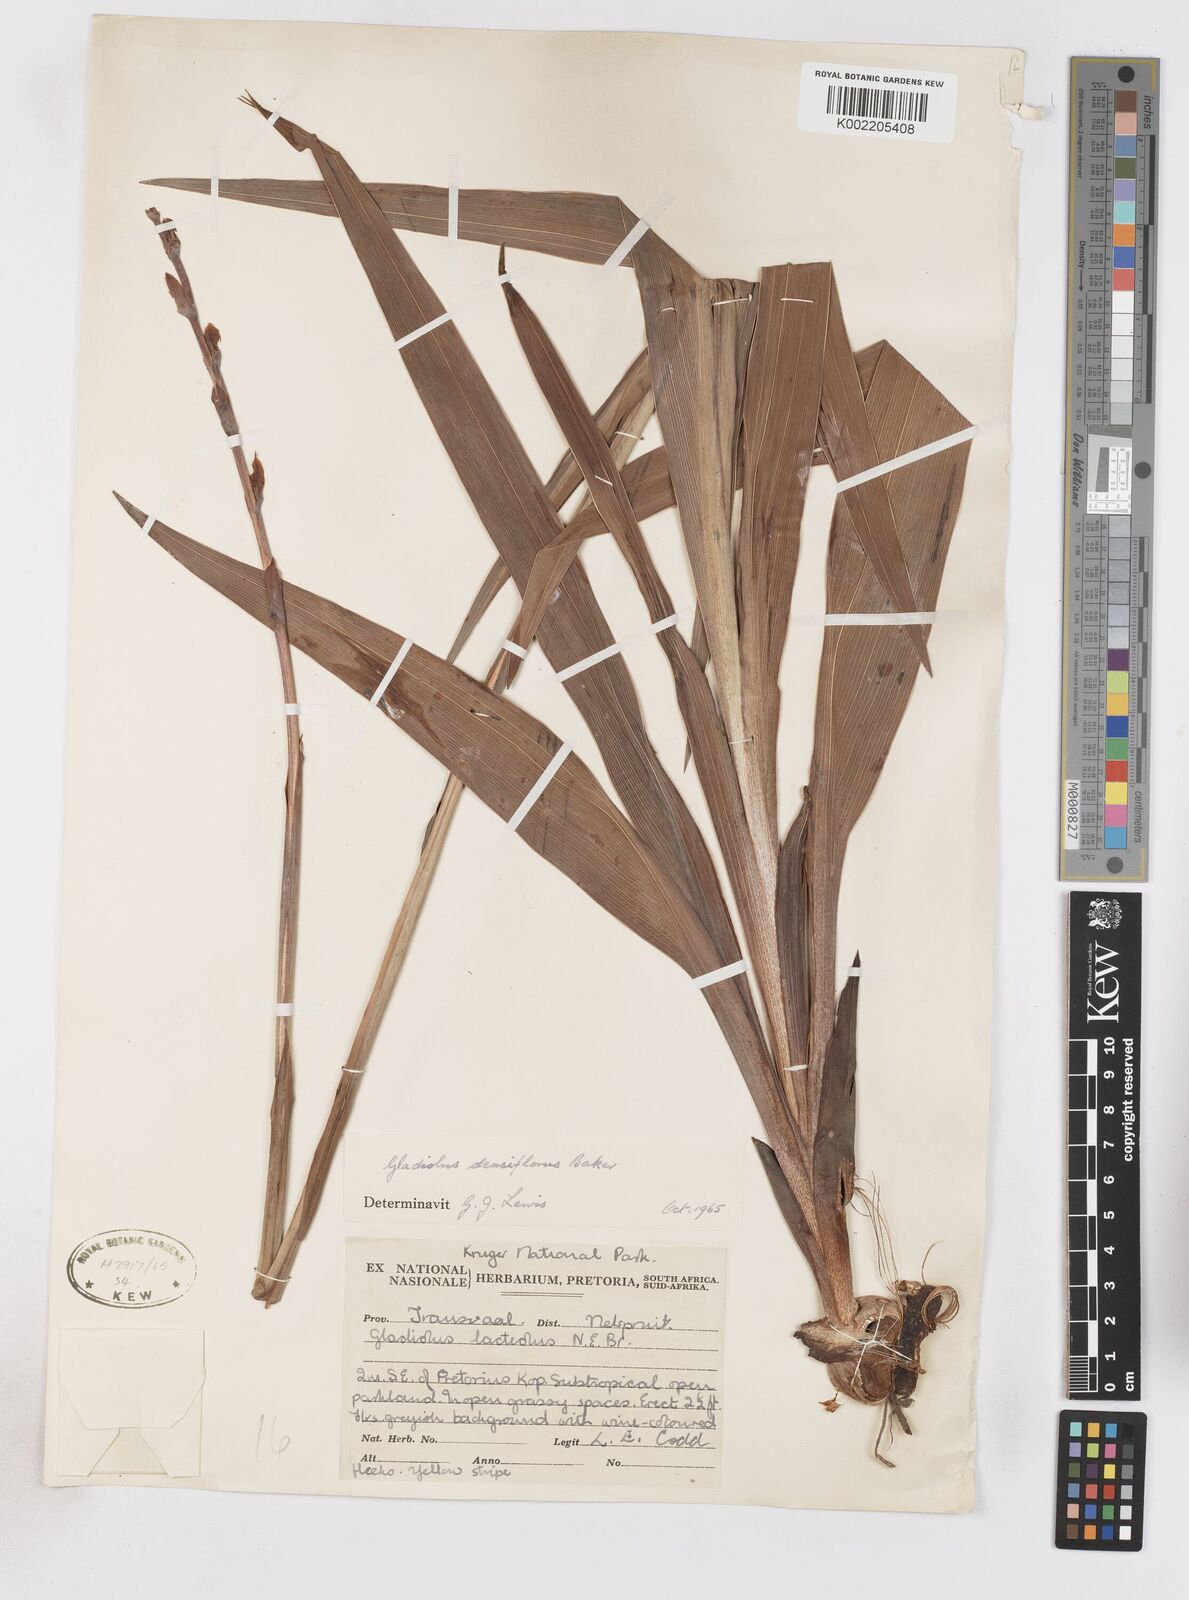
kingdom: Plantae
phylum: Tracheophyta
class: Liliopsida
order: Asparagales
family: Iridaceae
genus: Gladiolus
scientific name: Gladiolus densiflorus
